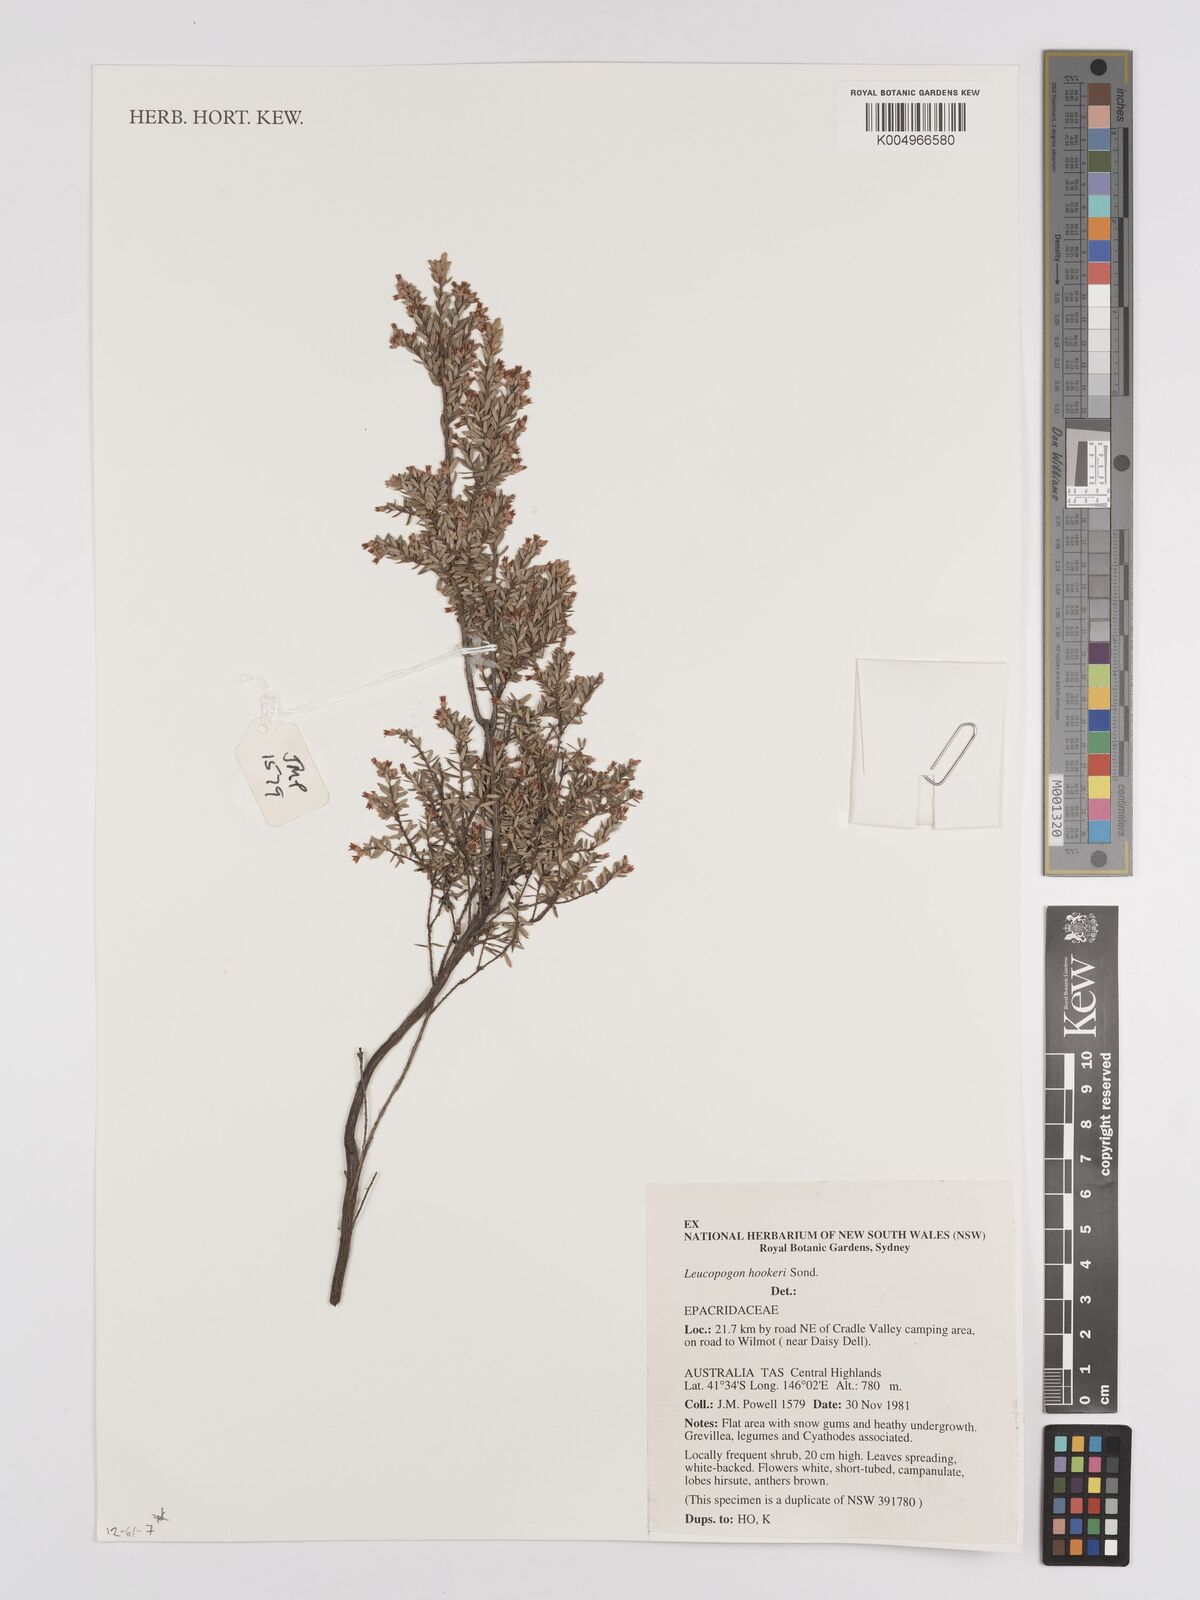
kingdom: Plantae
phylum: Tracheophyta
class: Magnoliopsida
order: Ericales
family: Ericaceae
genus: Acrothamnus
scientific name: Acrothamnus hookeri
